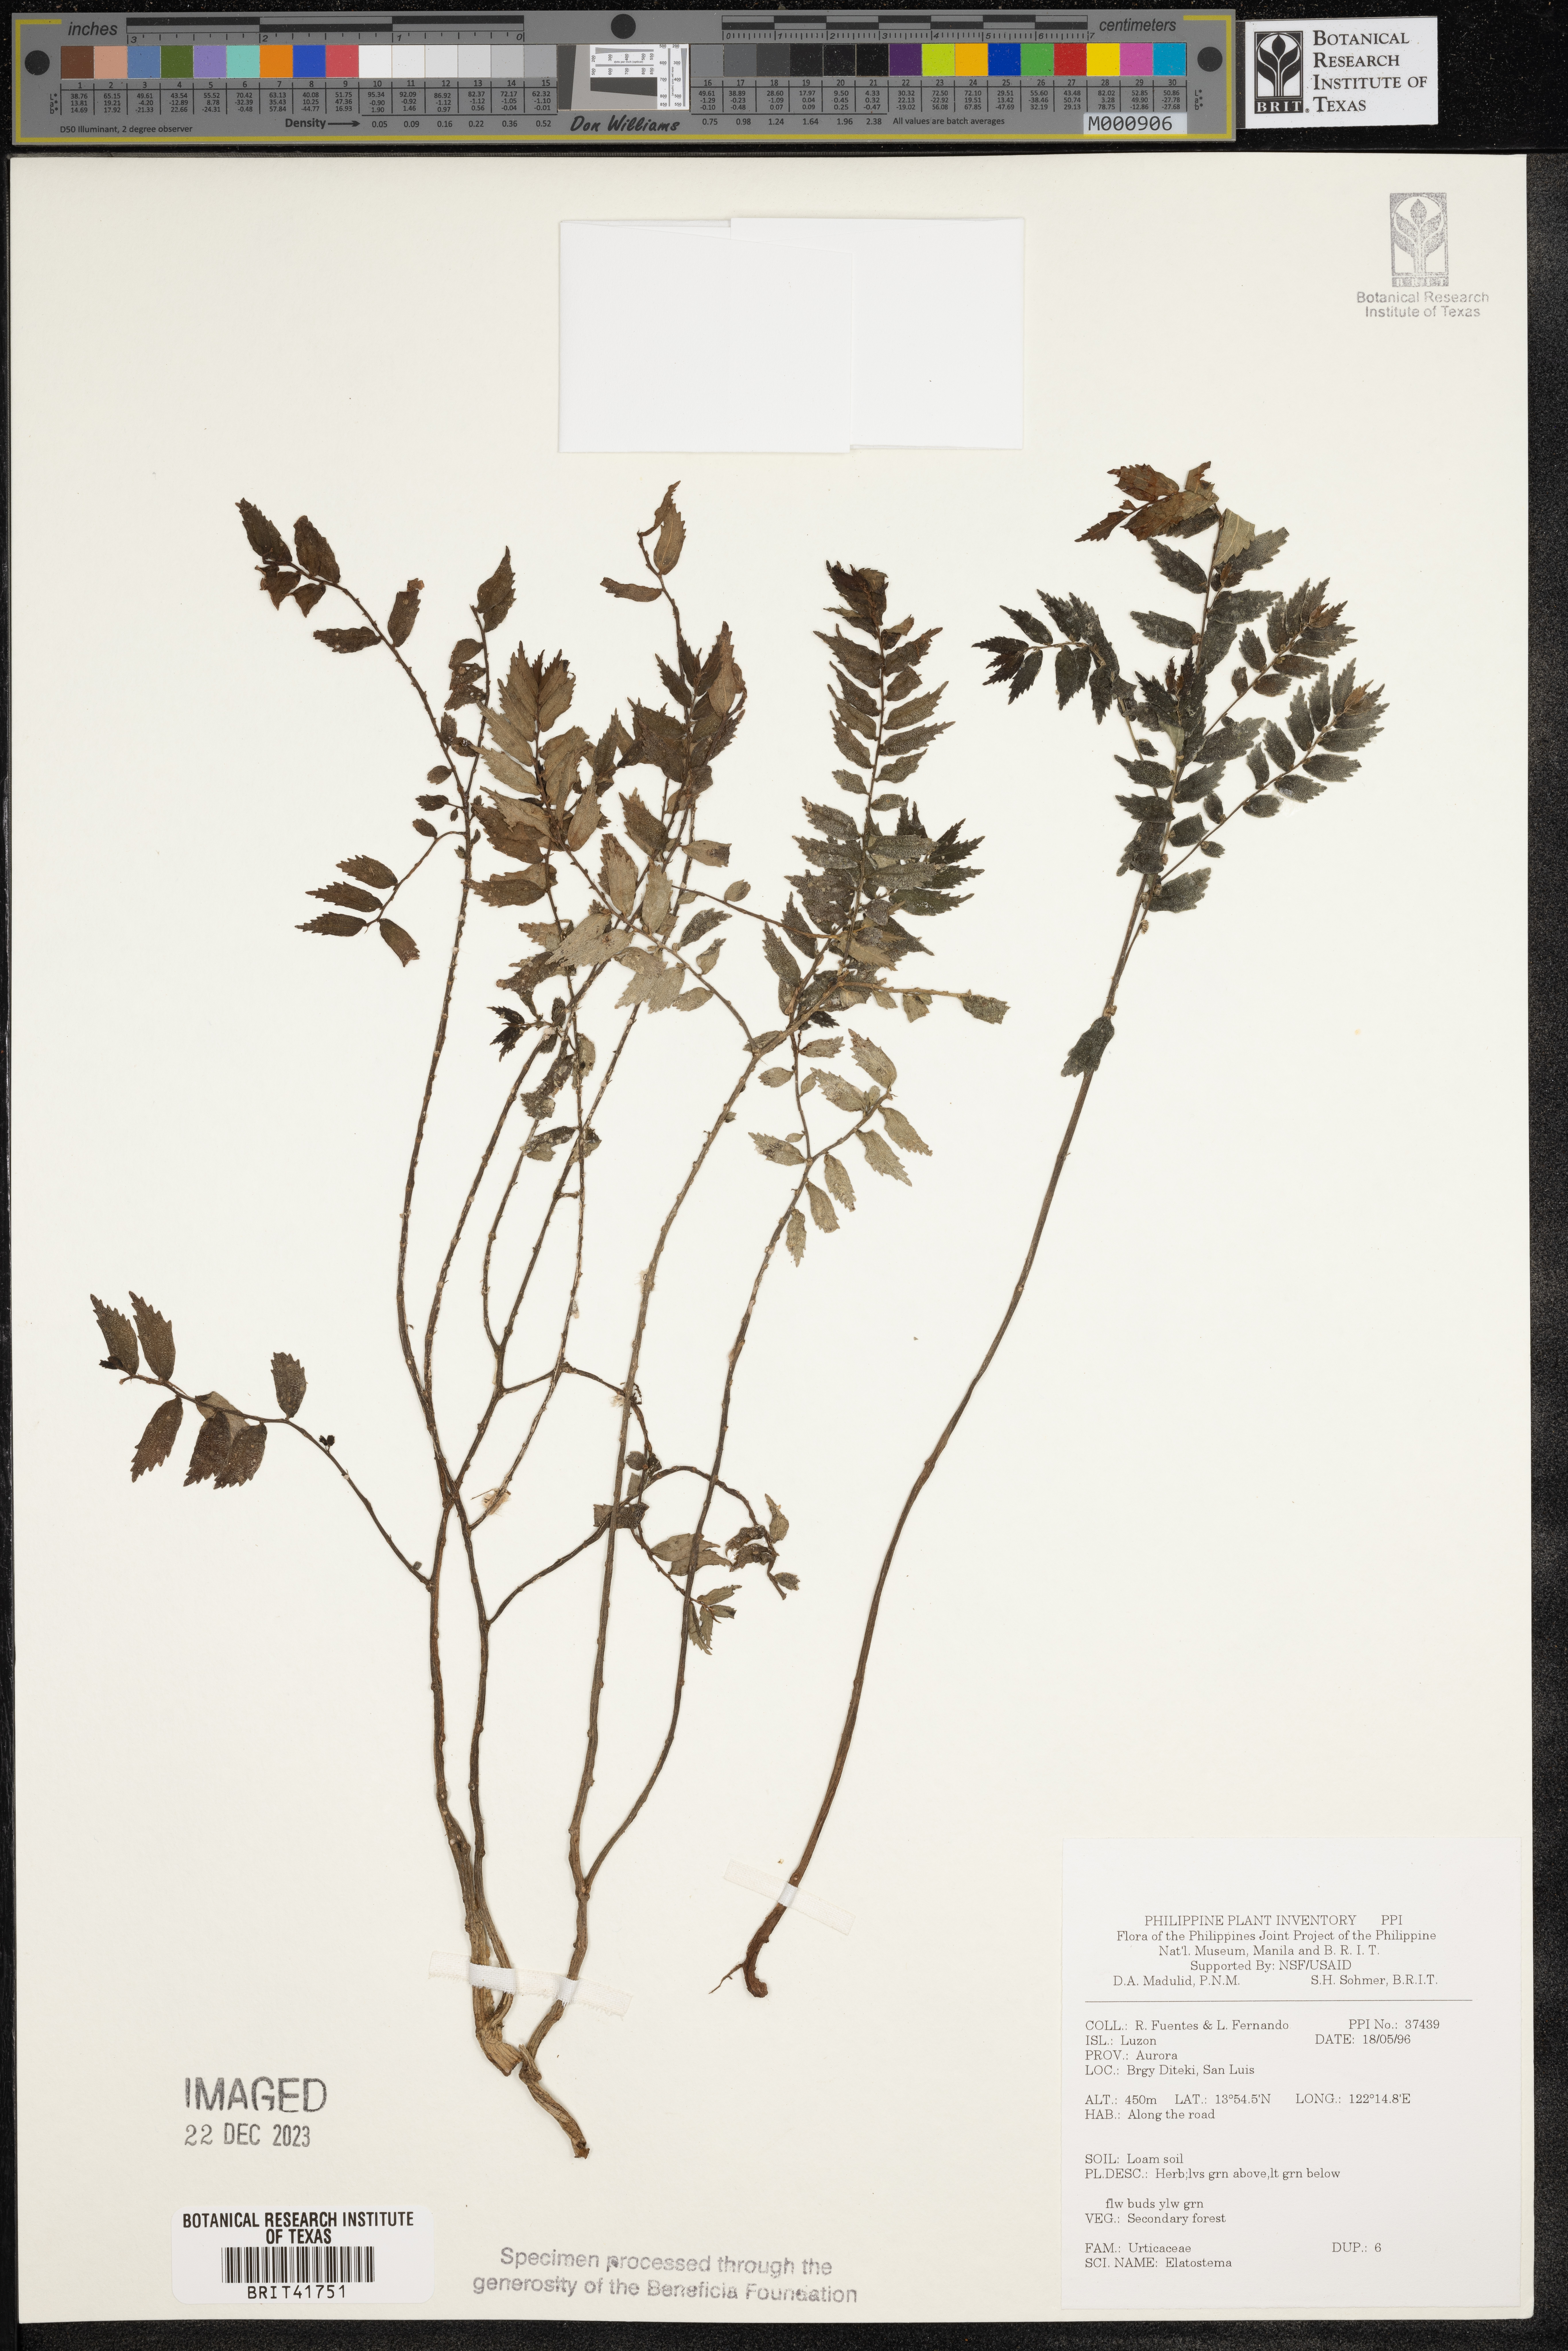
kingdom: Plantae
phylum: Tracheophyta
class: Magnoliopsida
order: Rosales
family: Urticaceae
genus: Elatostema
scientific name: Elatostema
